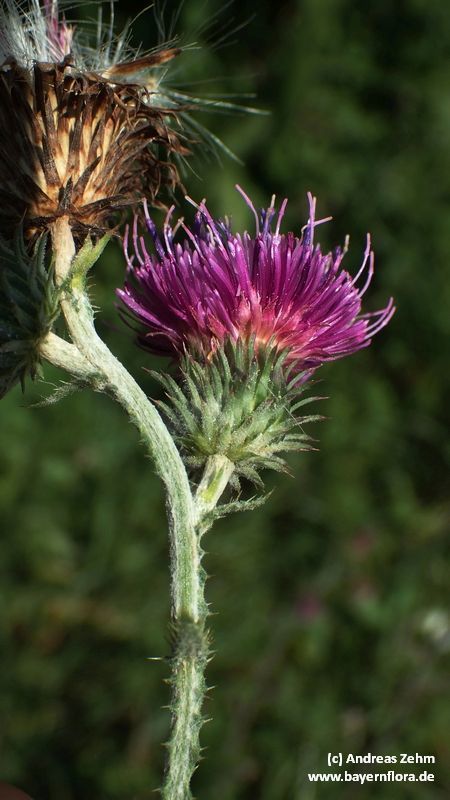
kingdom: Plantae
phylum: Tracheophyta
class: Magnoliopsida
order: Asterales
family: Asteraceae
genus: Carduus
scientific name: Carduus crispus
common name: Welted thistle
